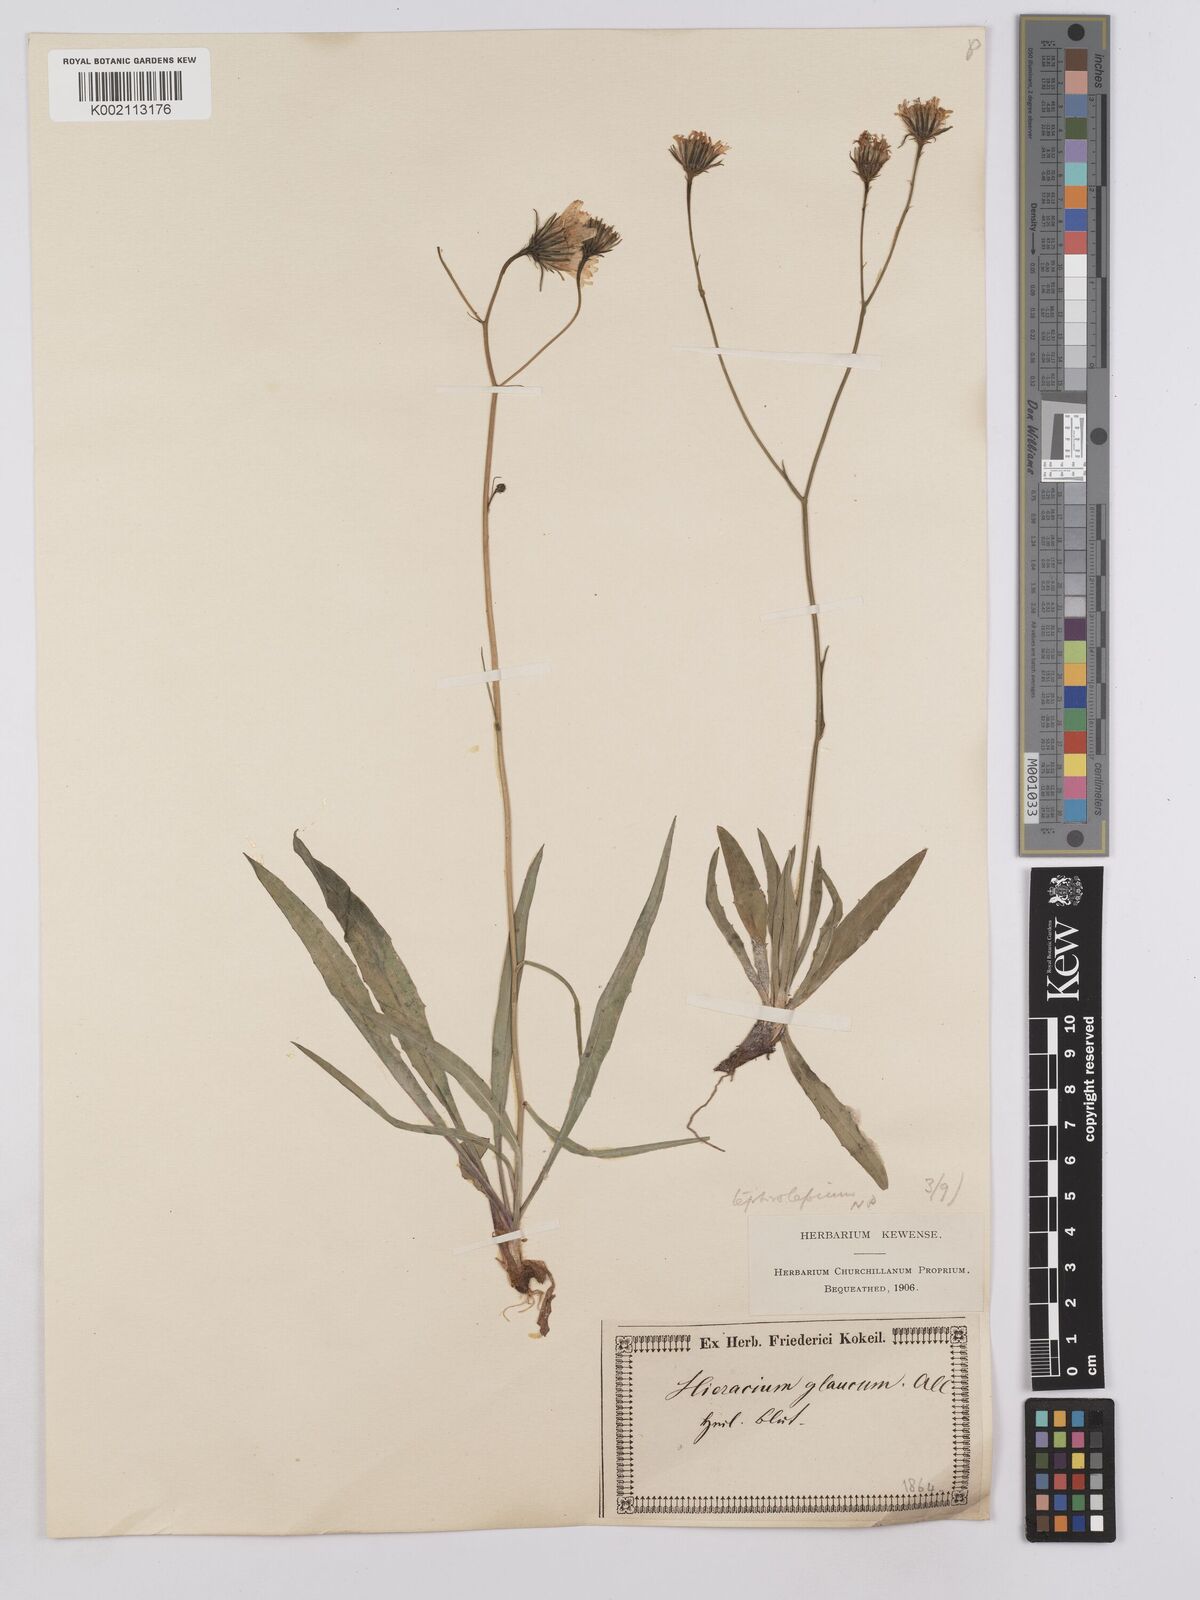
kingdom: Plantae
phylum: Tracheophyta
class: Magnoliopsida
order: Asterales
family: Asteraceae
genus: Hieracium
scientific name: Hieracium glaucum
